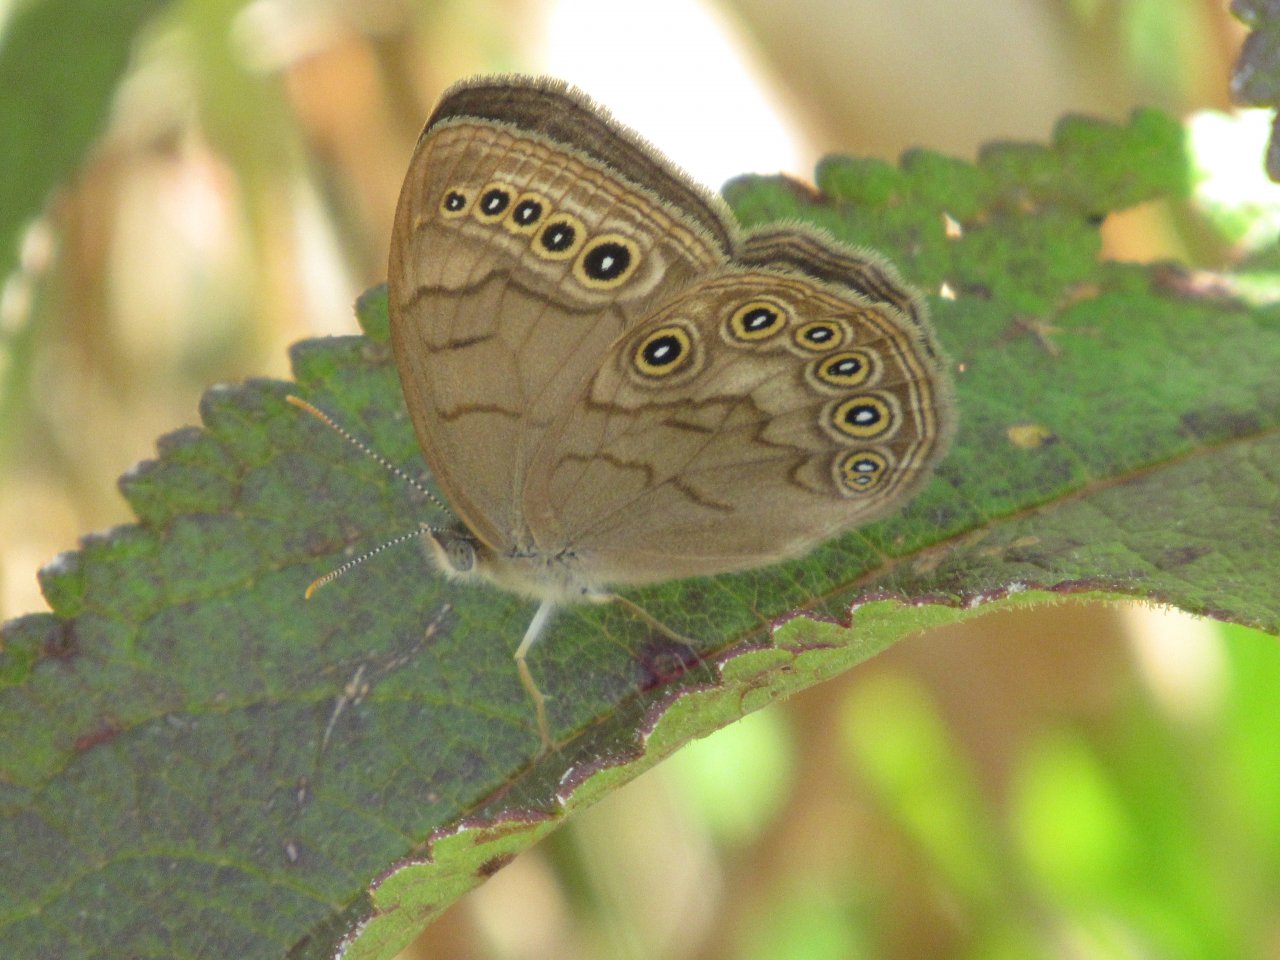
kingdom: Animalia
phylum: Arthropoda
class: Insecta
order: Lepidoptera
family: Nymphalidae
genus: Lethe
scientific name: Lethe eurydice
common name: Eyed Brown
